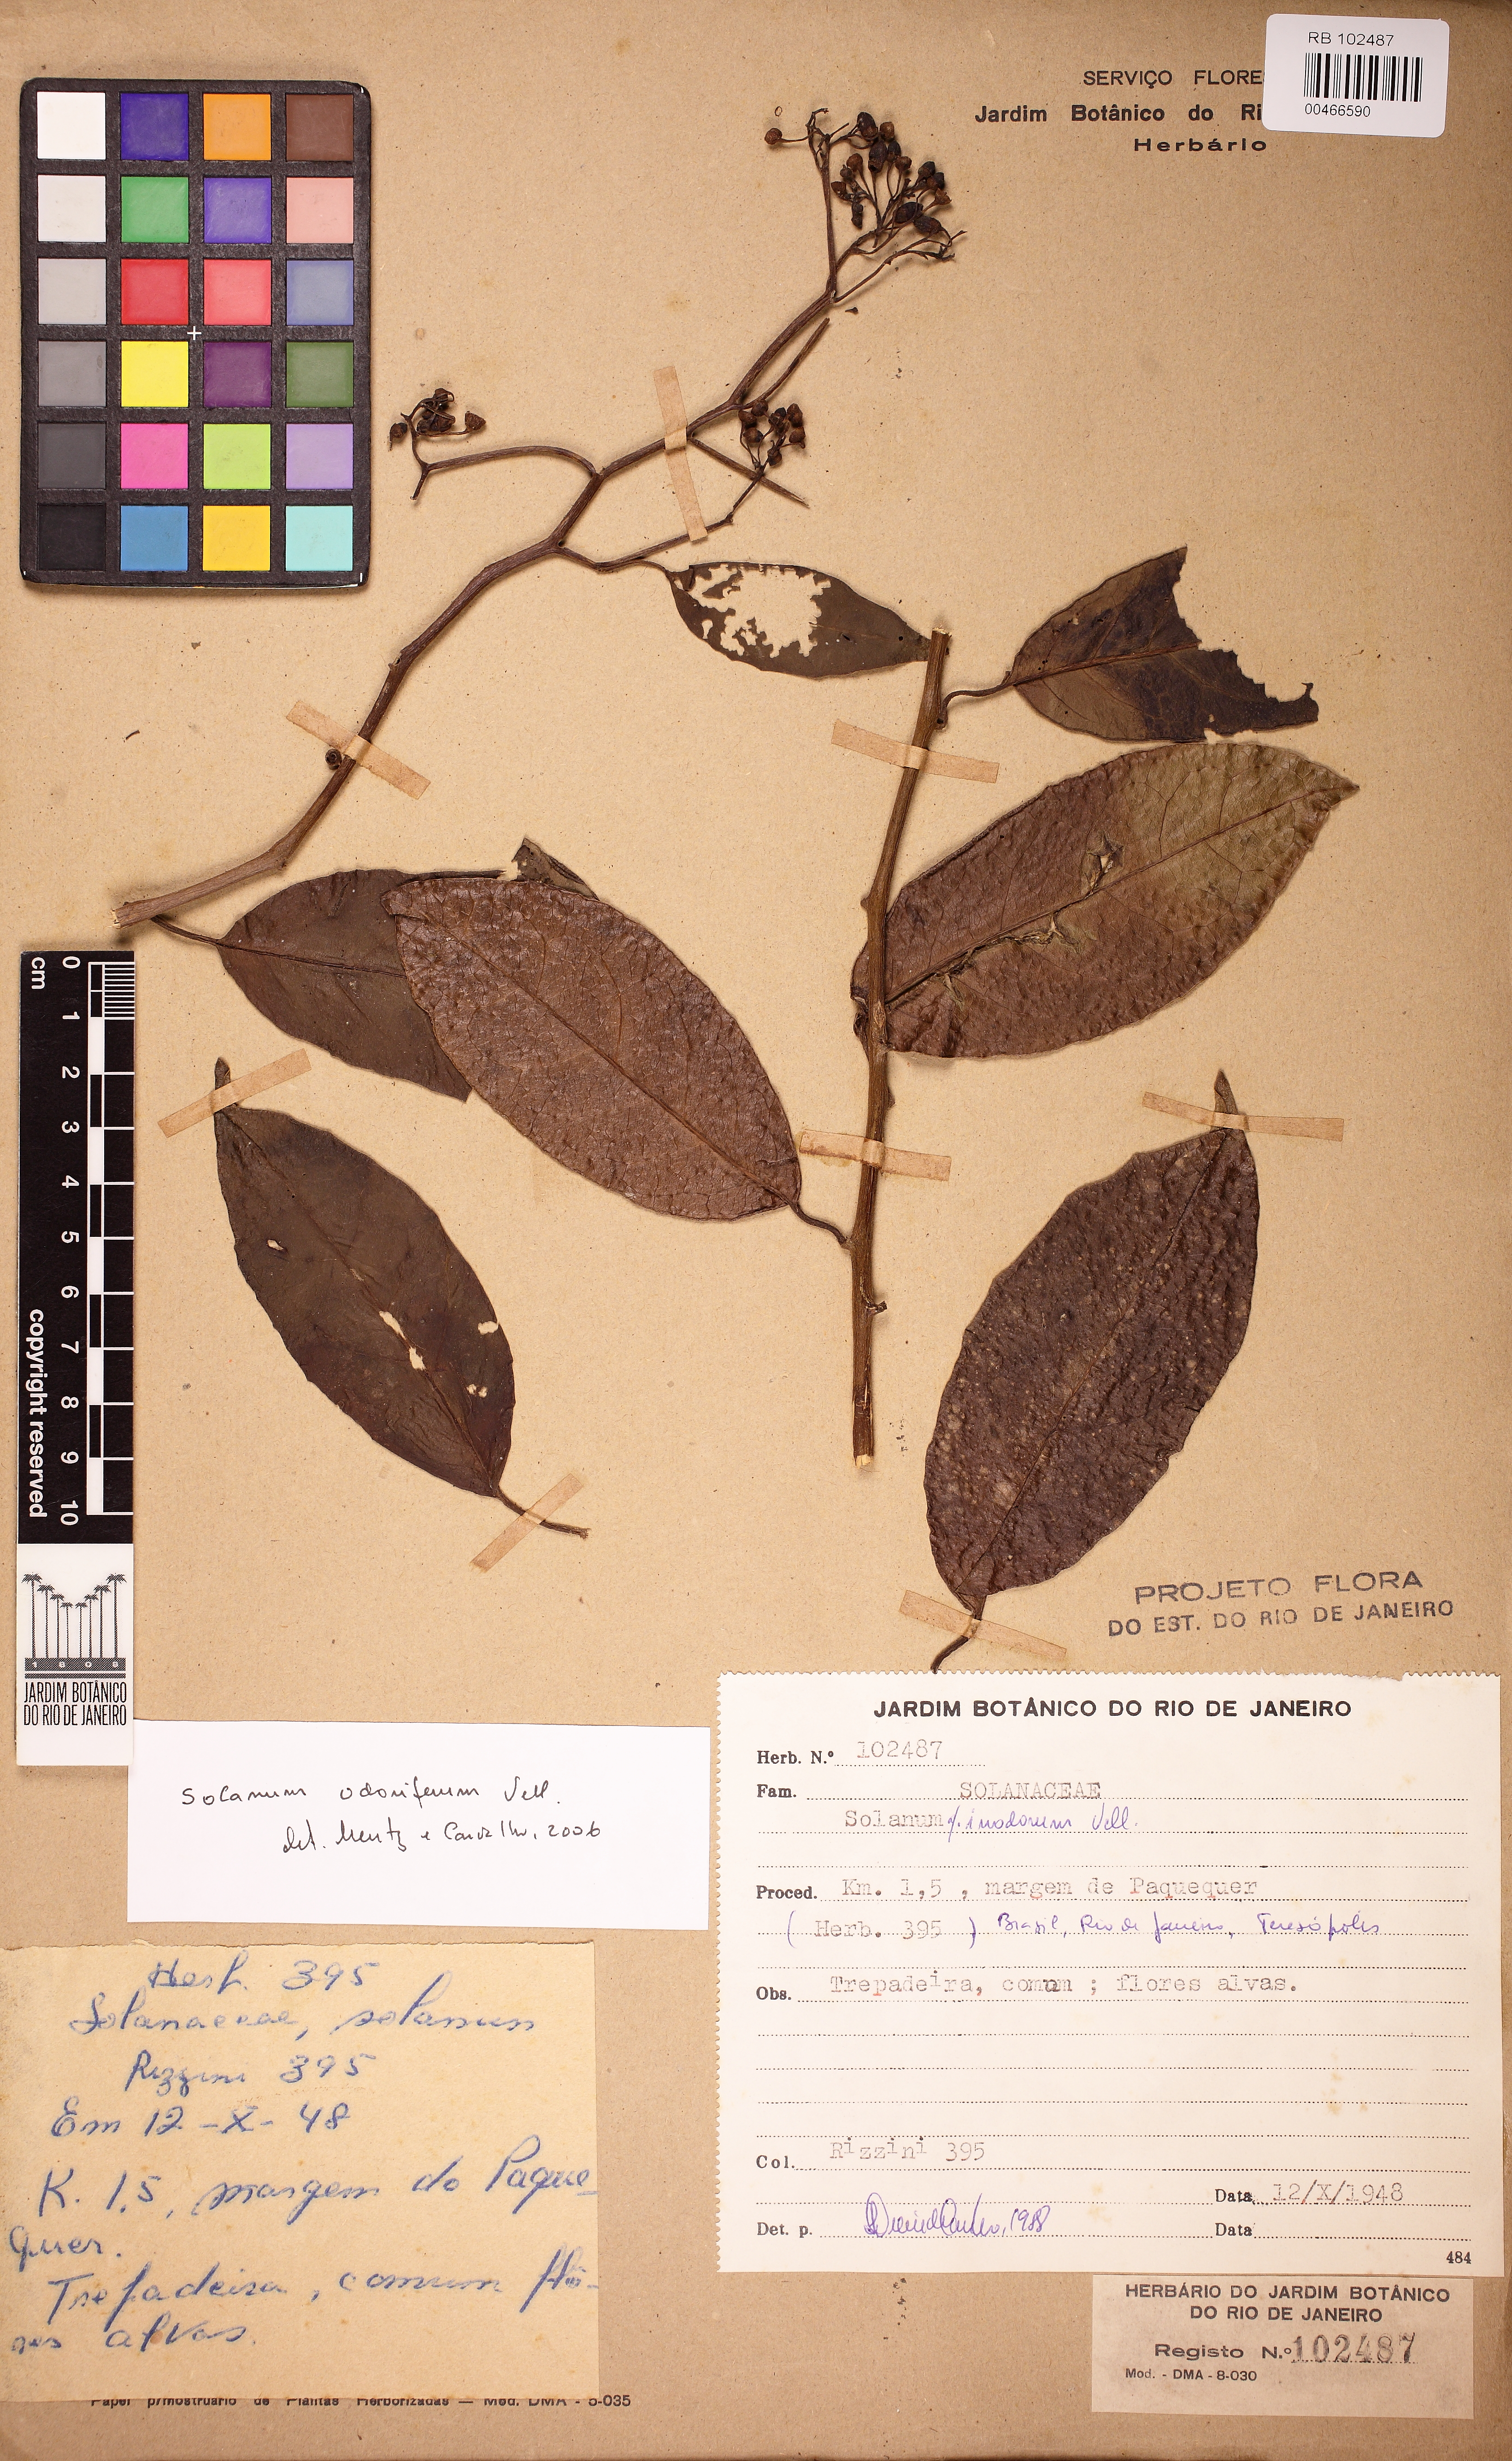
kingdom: Plantae
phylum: Tracheophyta
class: Magnoliopsida
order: Solanales
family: Solanaceae
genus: Solanum
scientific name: Solanum odoriferum
